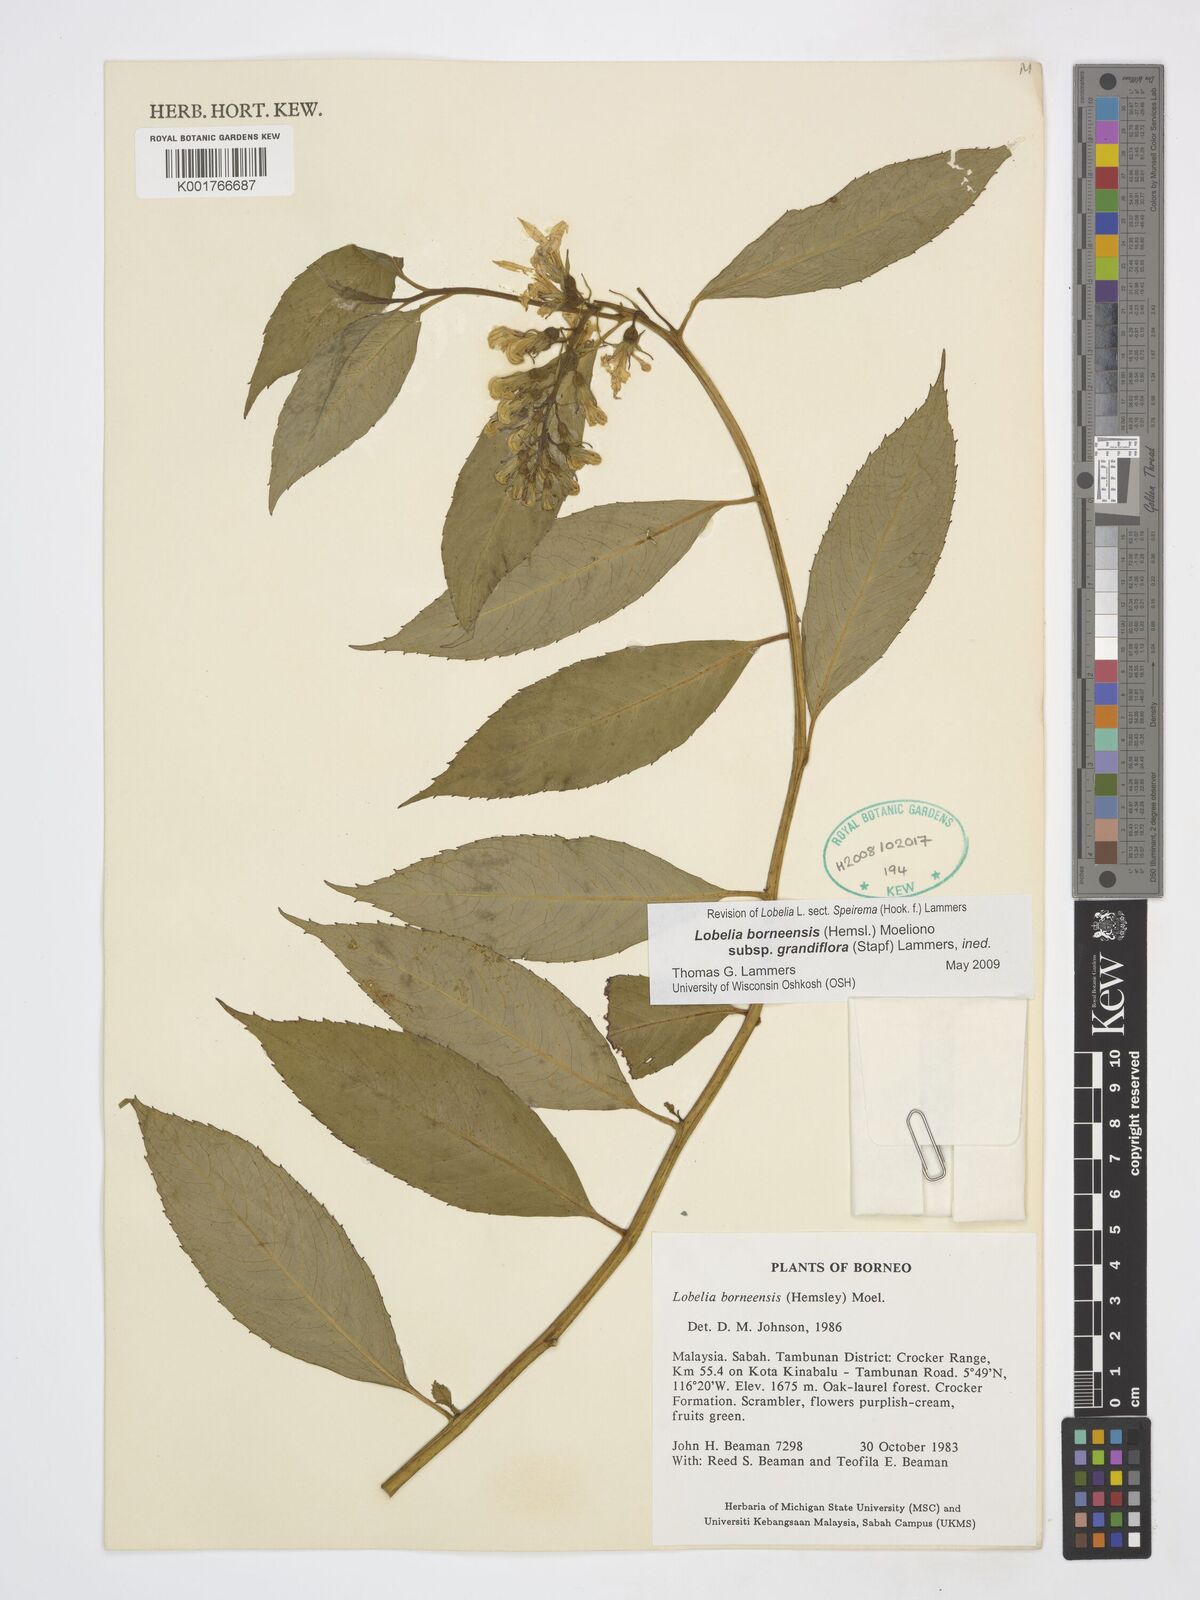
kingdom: Plantae
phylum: Tracheophyta
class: Magnoliopsida
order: Asterales
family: Campanulaceae
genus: Lobelia
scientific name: Lobelia borneensis
